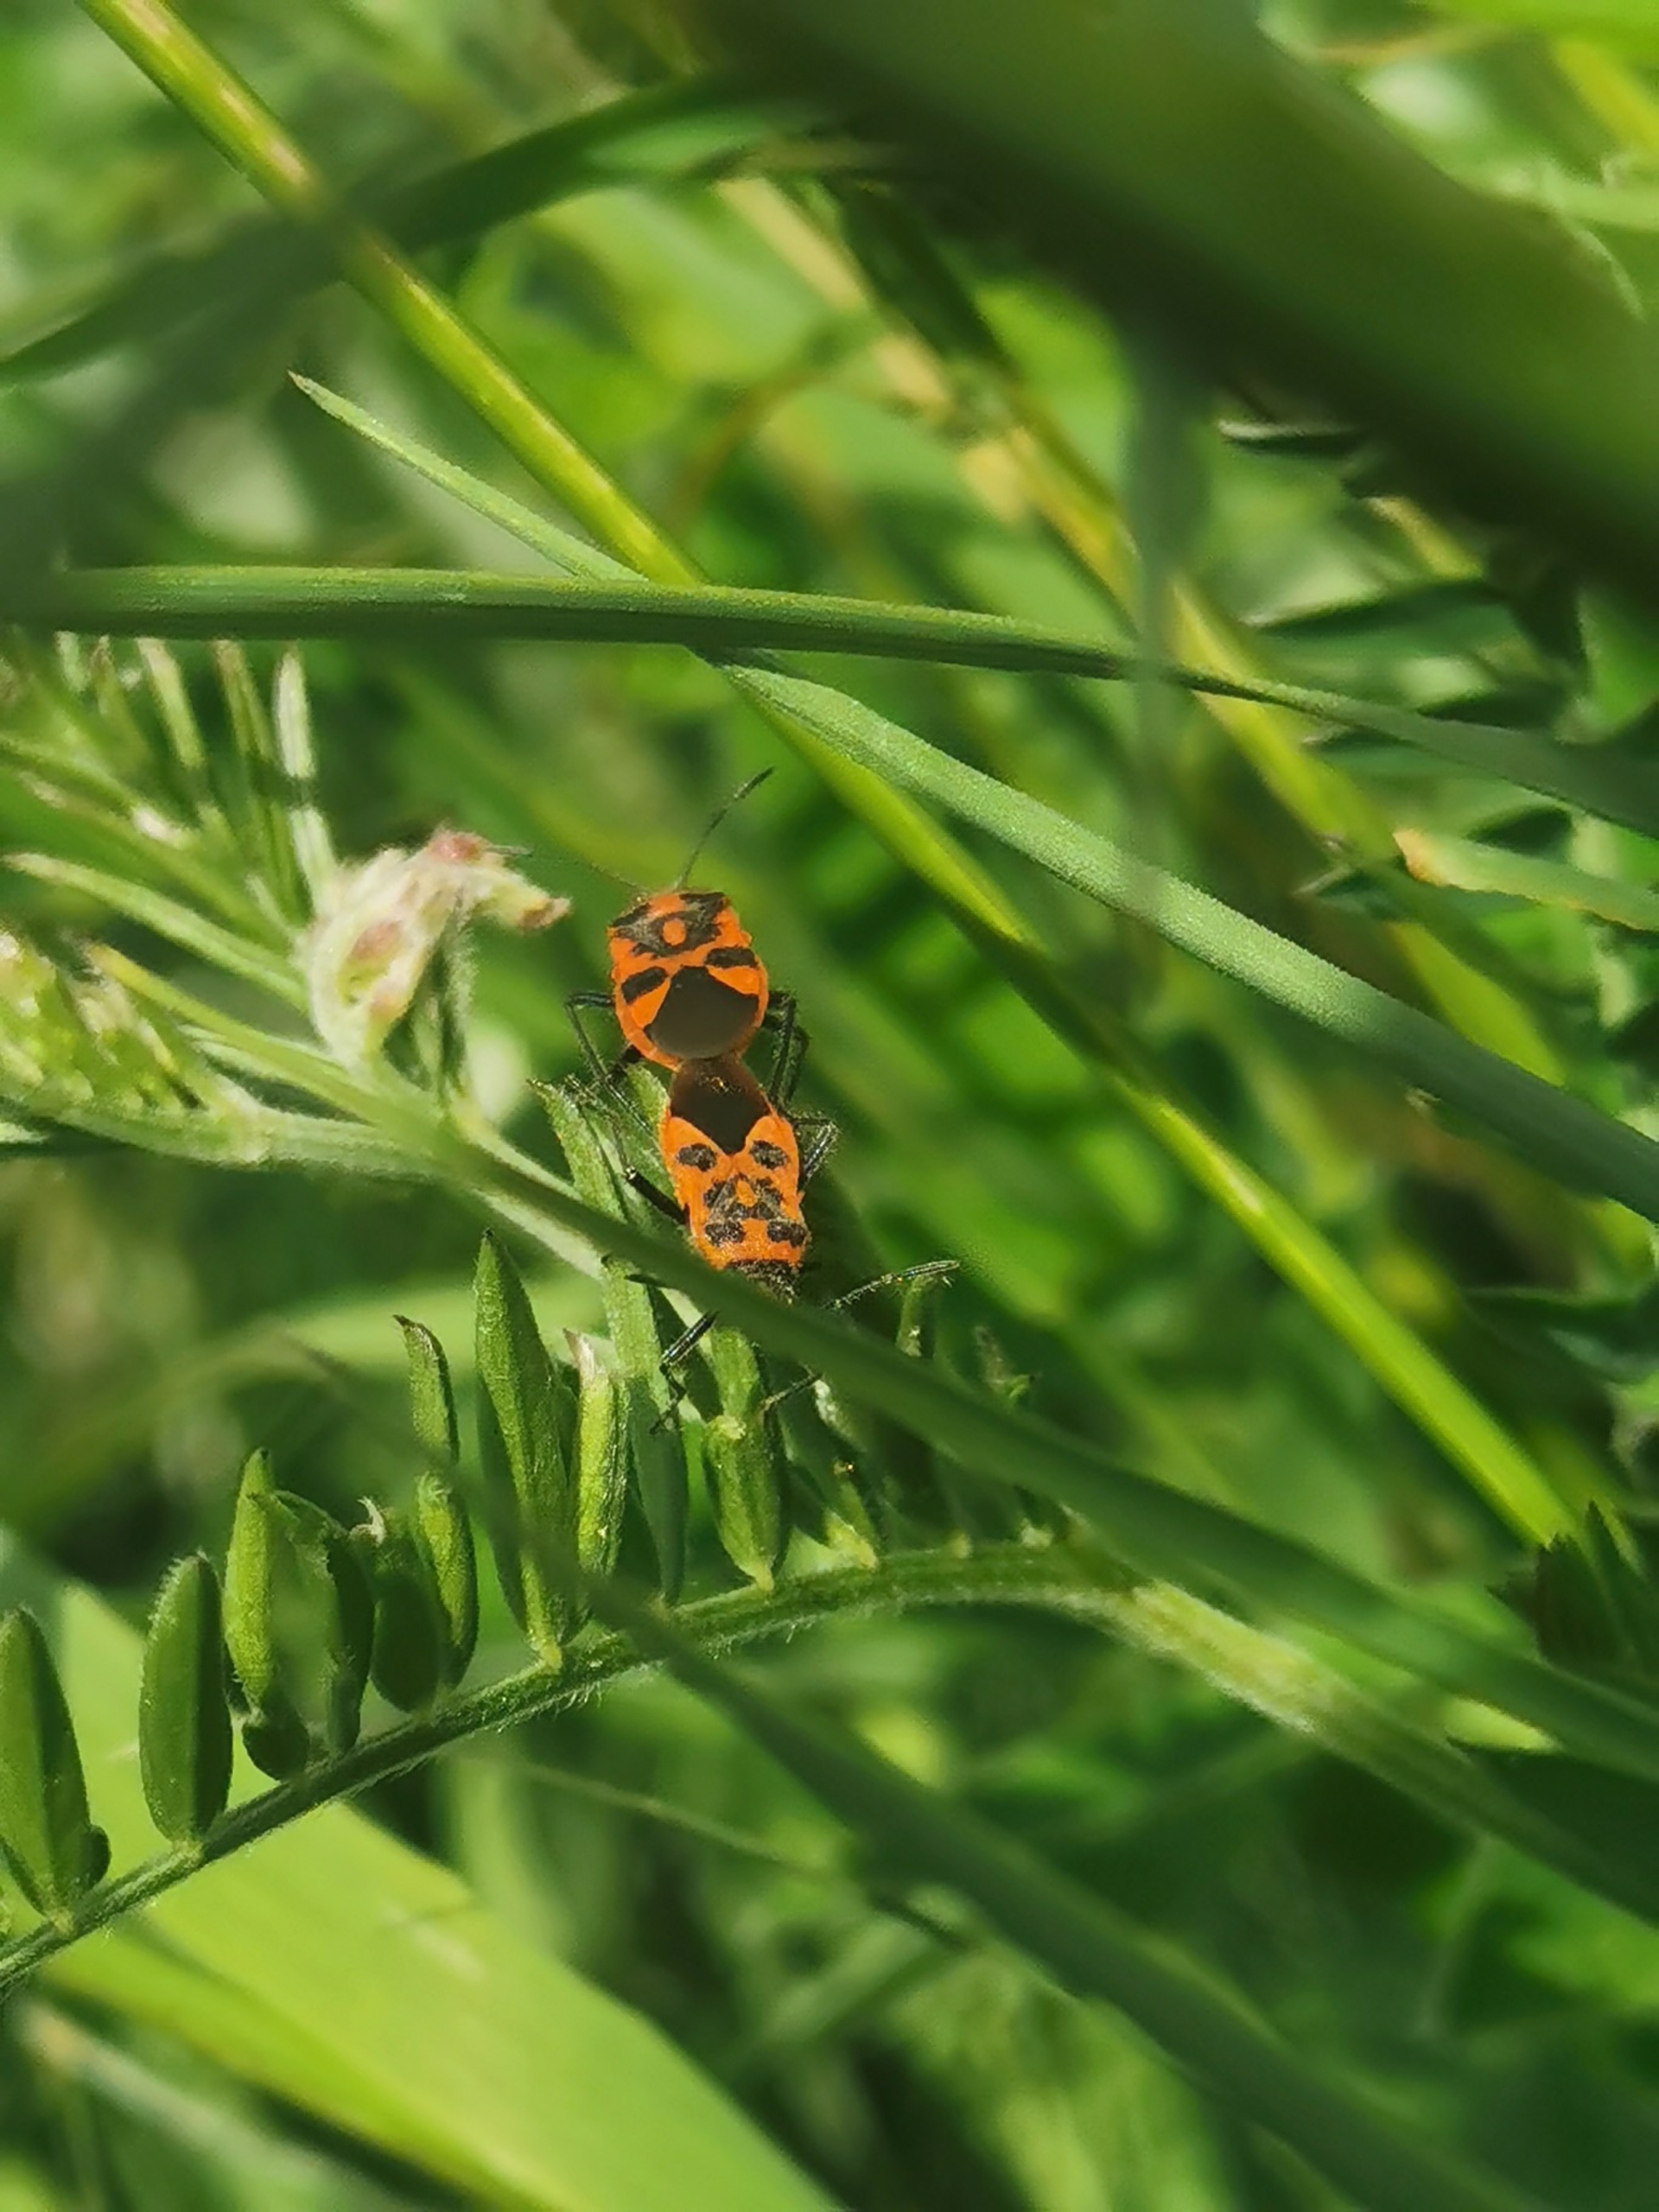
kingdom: Animalia
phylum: Arthropoda
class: Insecta
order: Hemiptera
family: Rhopalidae
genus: Corizus
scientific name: Corizus hyoscyami
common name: Rød kanttæge
